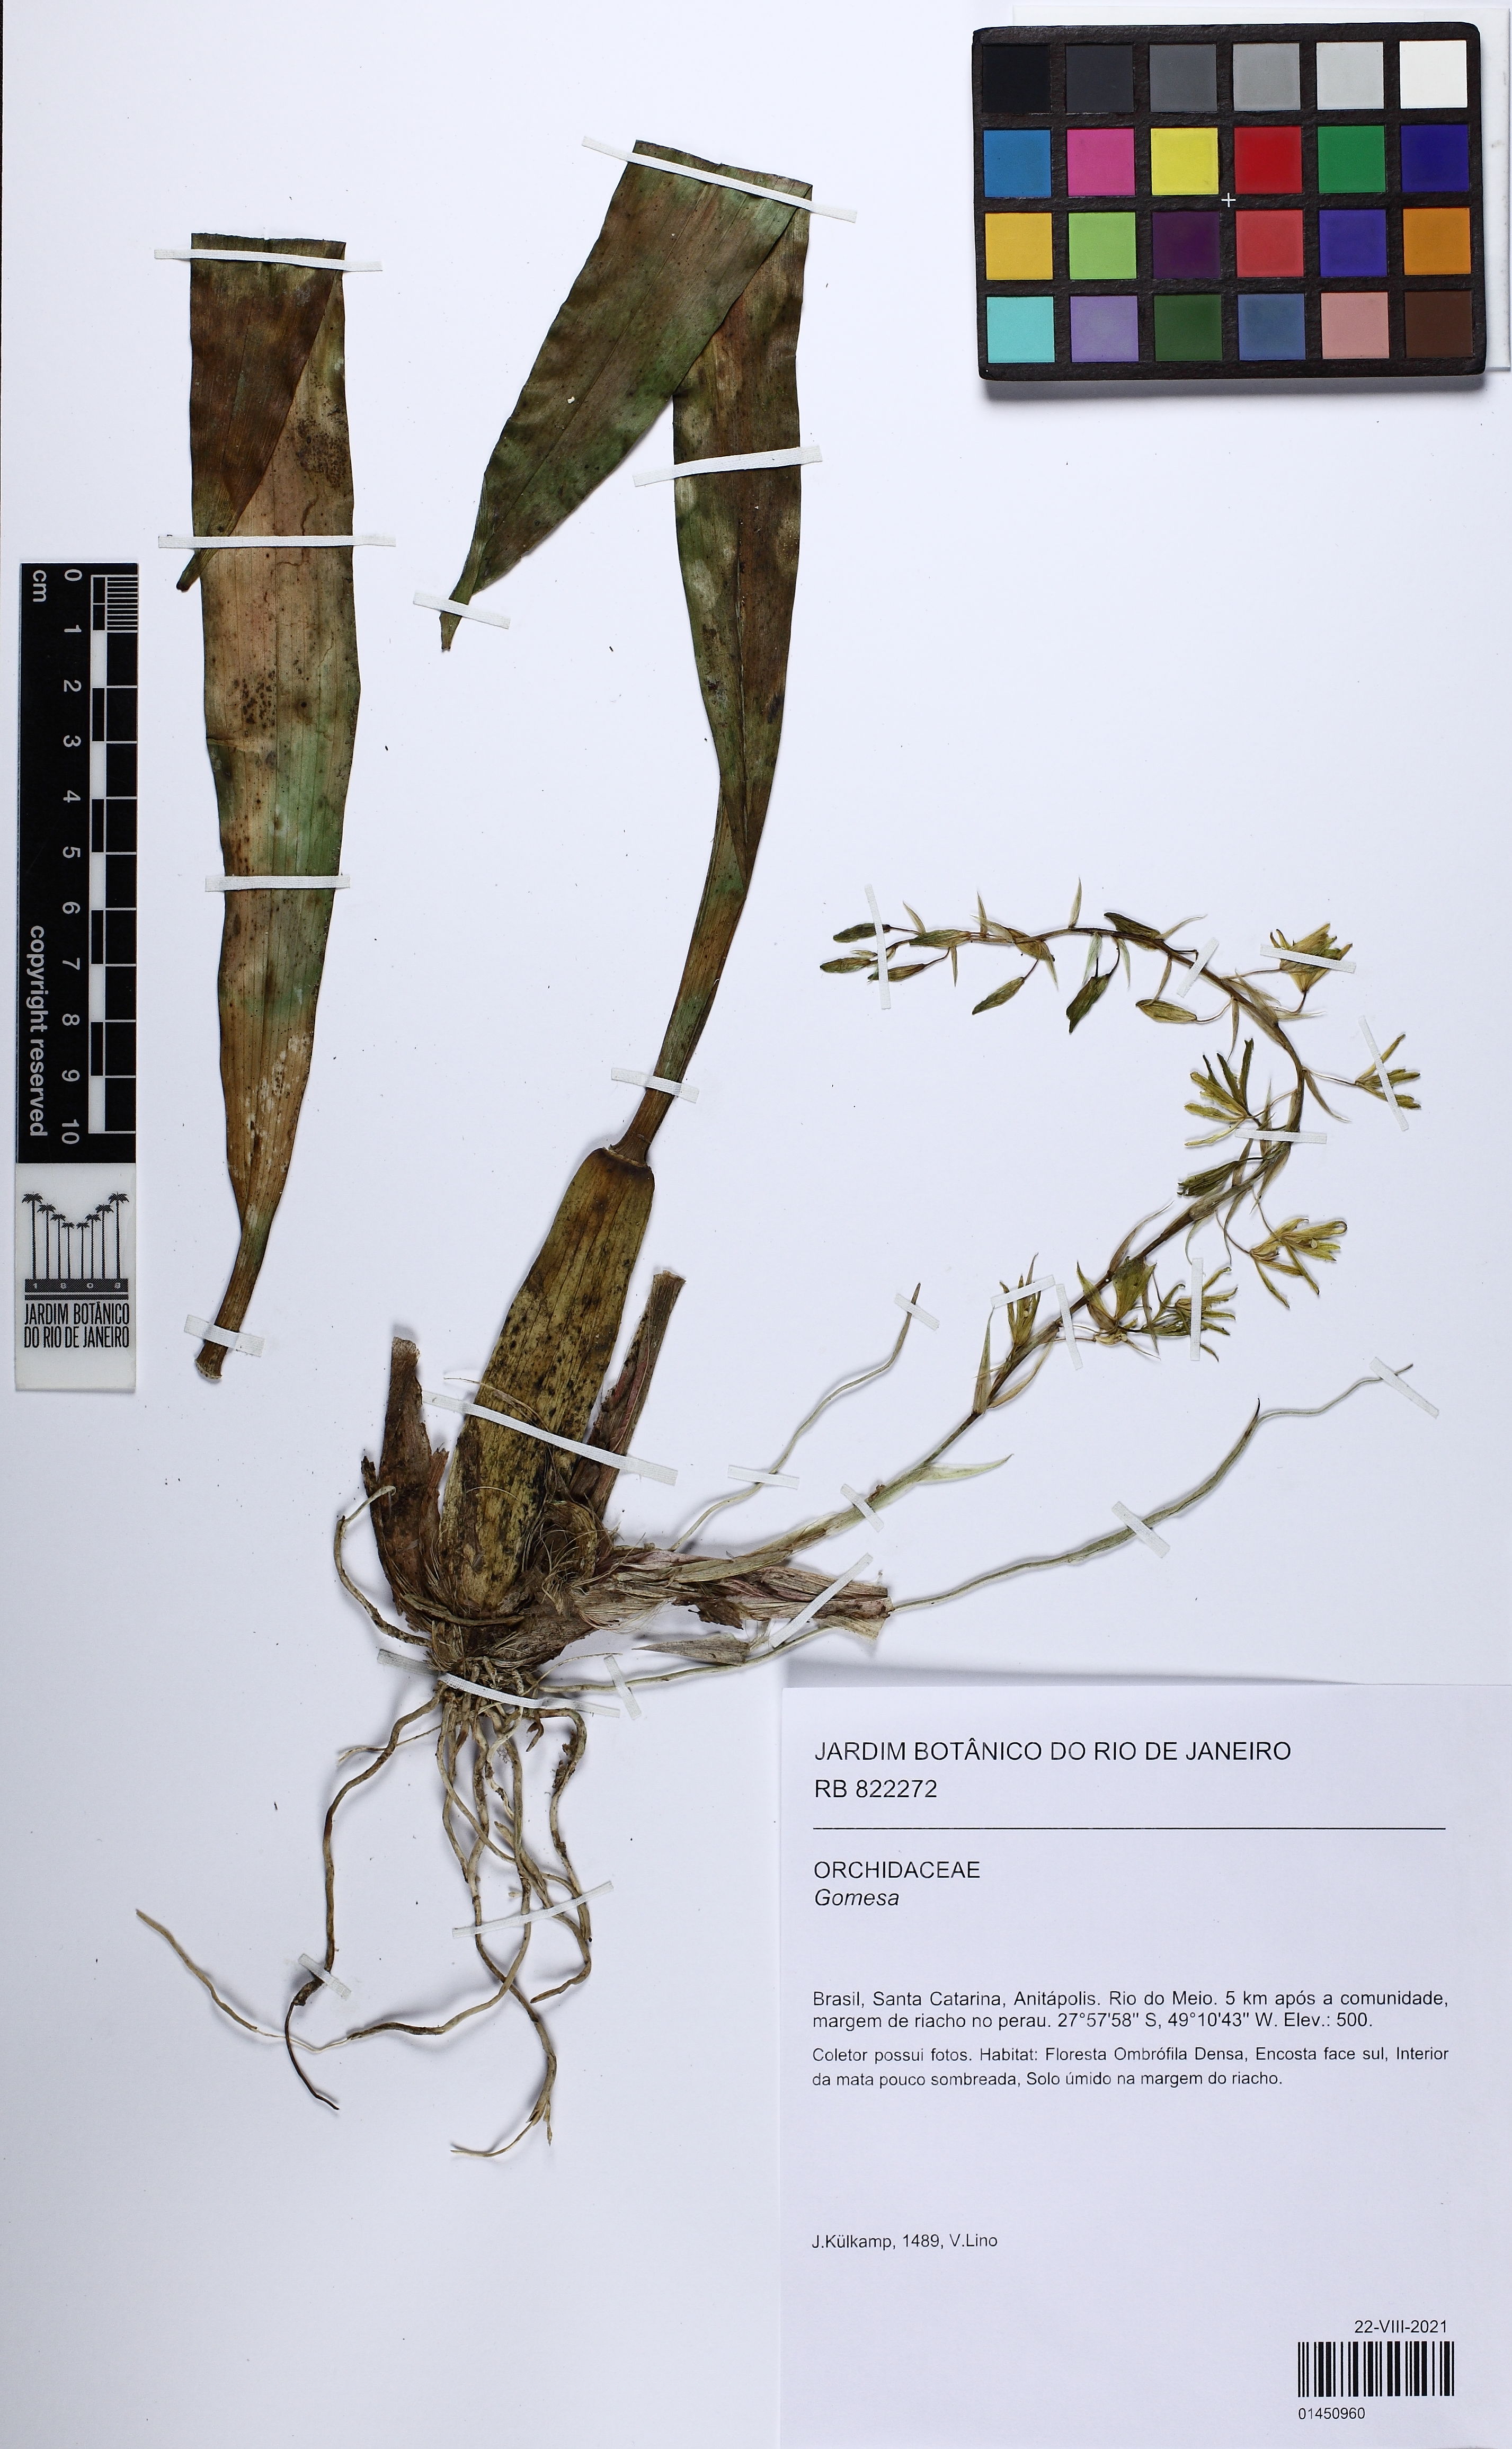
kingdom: Plantae
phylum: Tracheophyta
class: Liliopsida
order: Asparagales
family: Orchidaceae
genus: Gomesa
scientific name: Gomesa
